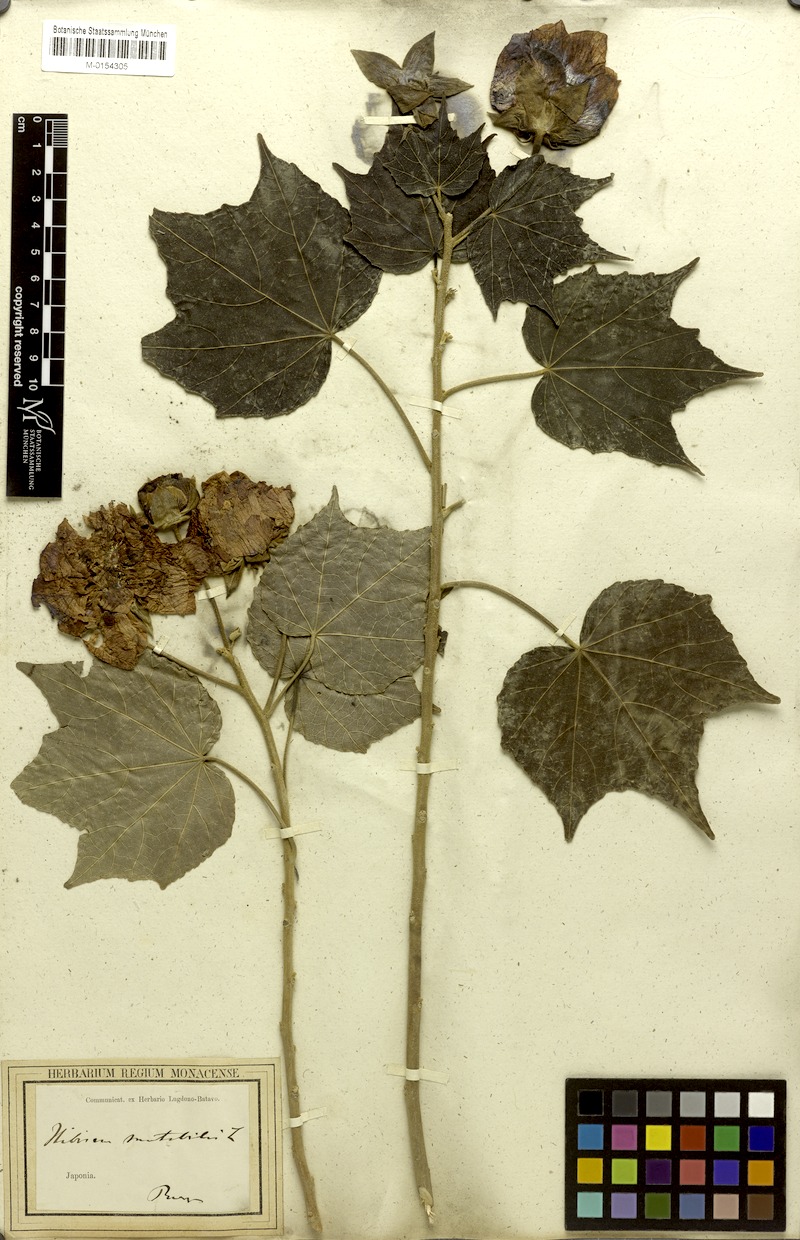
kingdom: Plantae
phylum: Tracheophyta
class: Magnoliopsida
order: Malvales
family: Malvaceae
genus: Hibiscus
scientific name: Hibiscus mutabilis
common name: Dixie rosemallow
